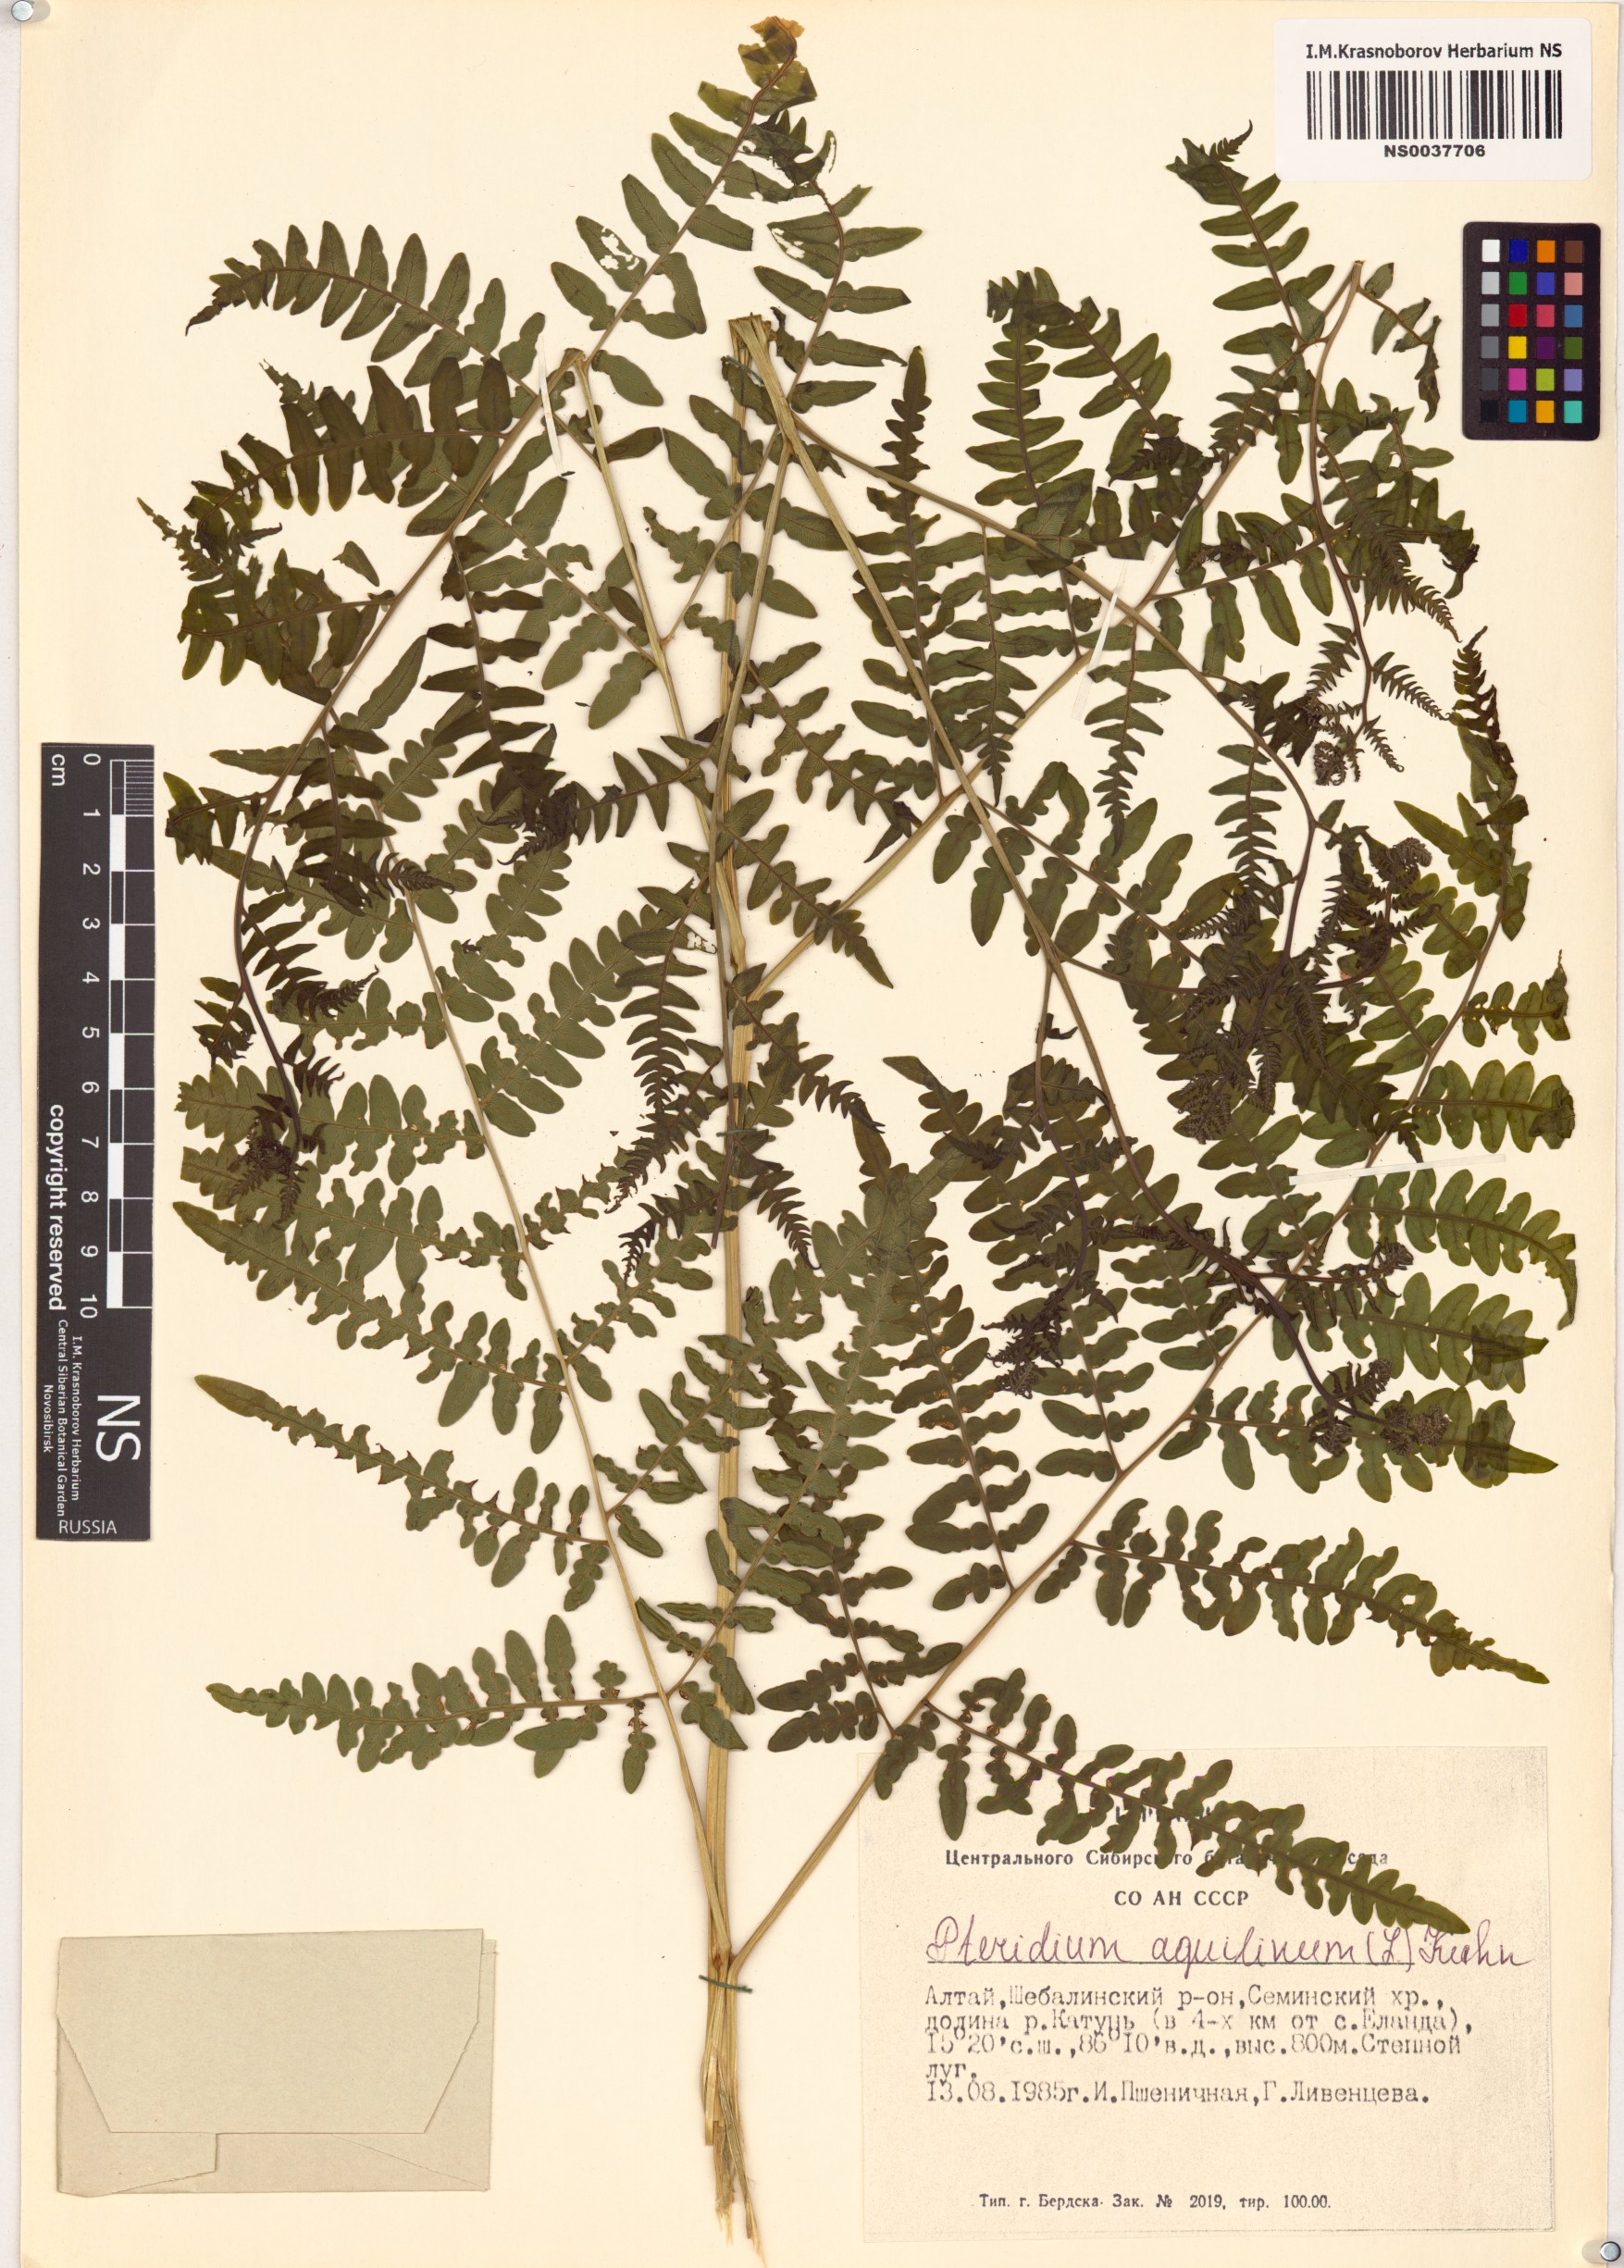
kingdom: Plantae
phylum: Tracheophyta
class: Polypodiopsida
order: Polypodiales
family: Dennstaedtiaceae
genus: Pteridium
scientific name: Pteridium aquilinum
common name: Bracken
